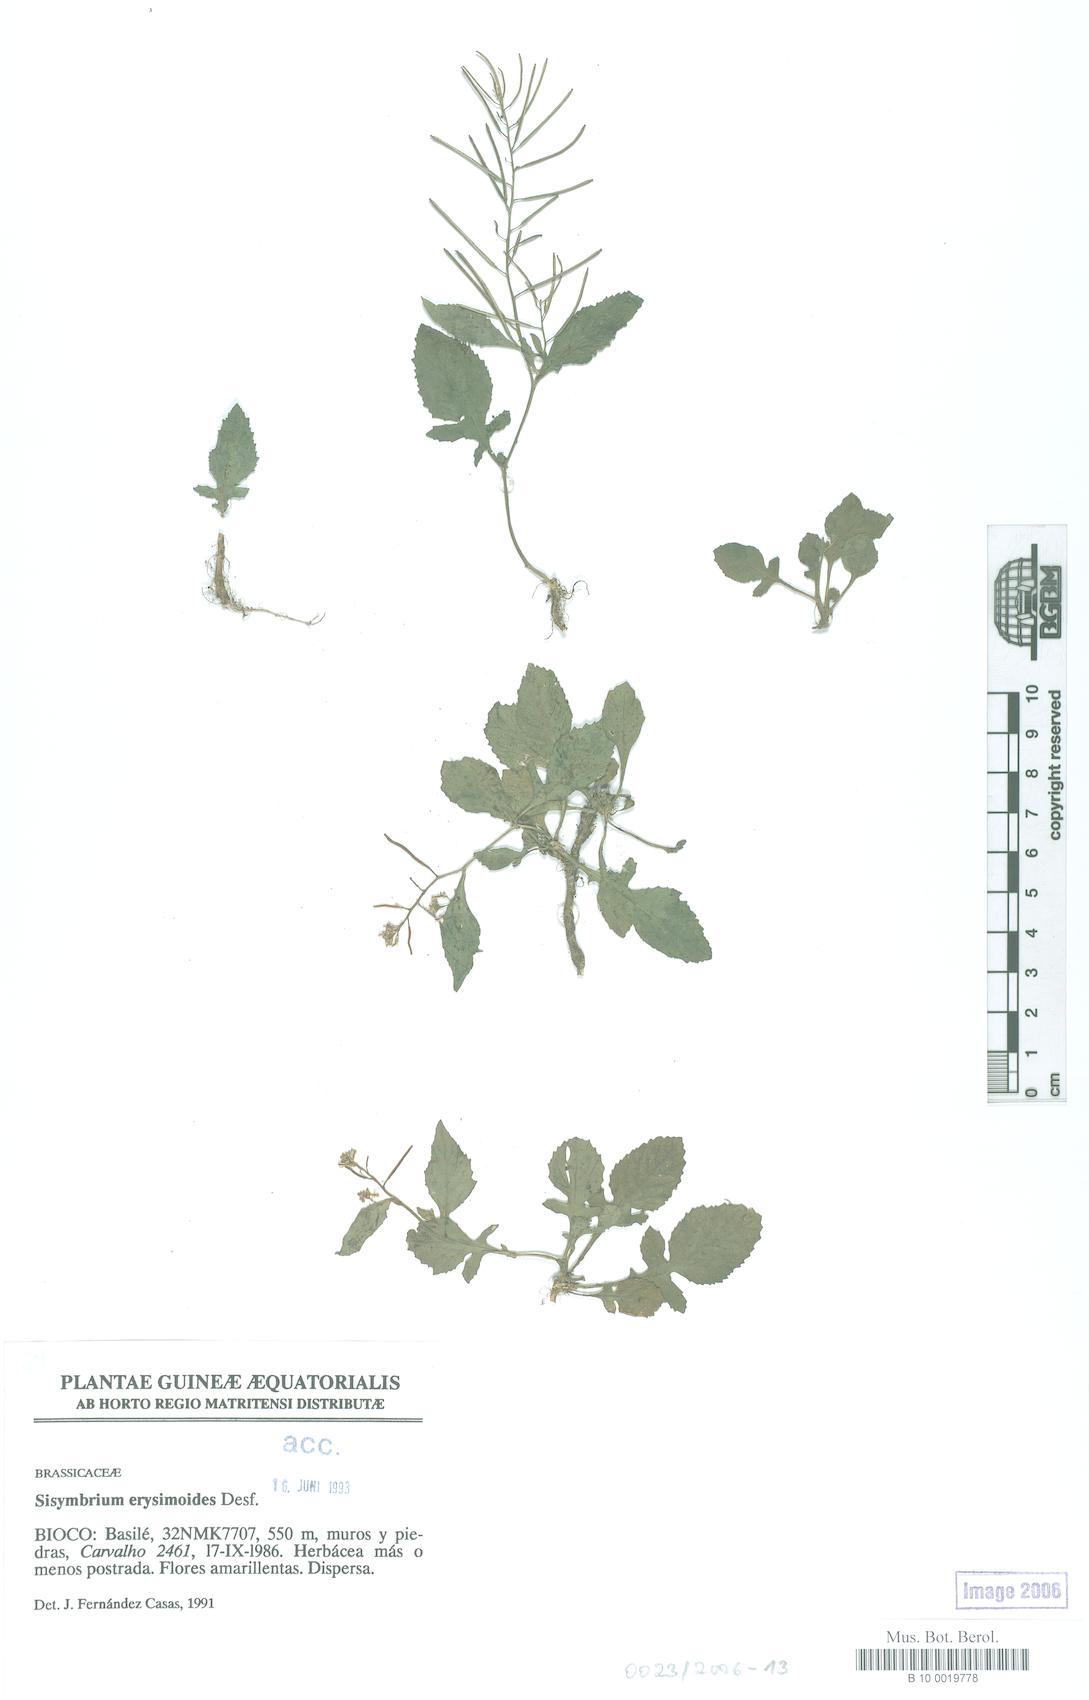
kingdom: Plantae
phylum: Tracheophyta
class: Magnoliopsida
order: Brassicales
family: Brassicaceae
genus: Sisymbrium
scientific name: Sisymbrium erysimoides
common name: French rocket
